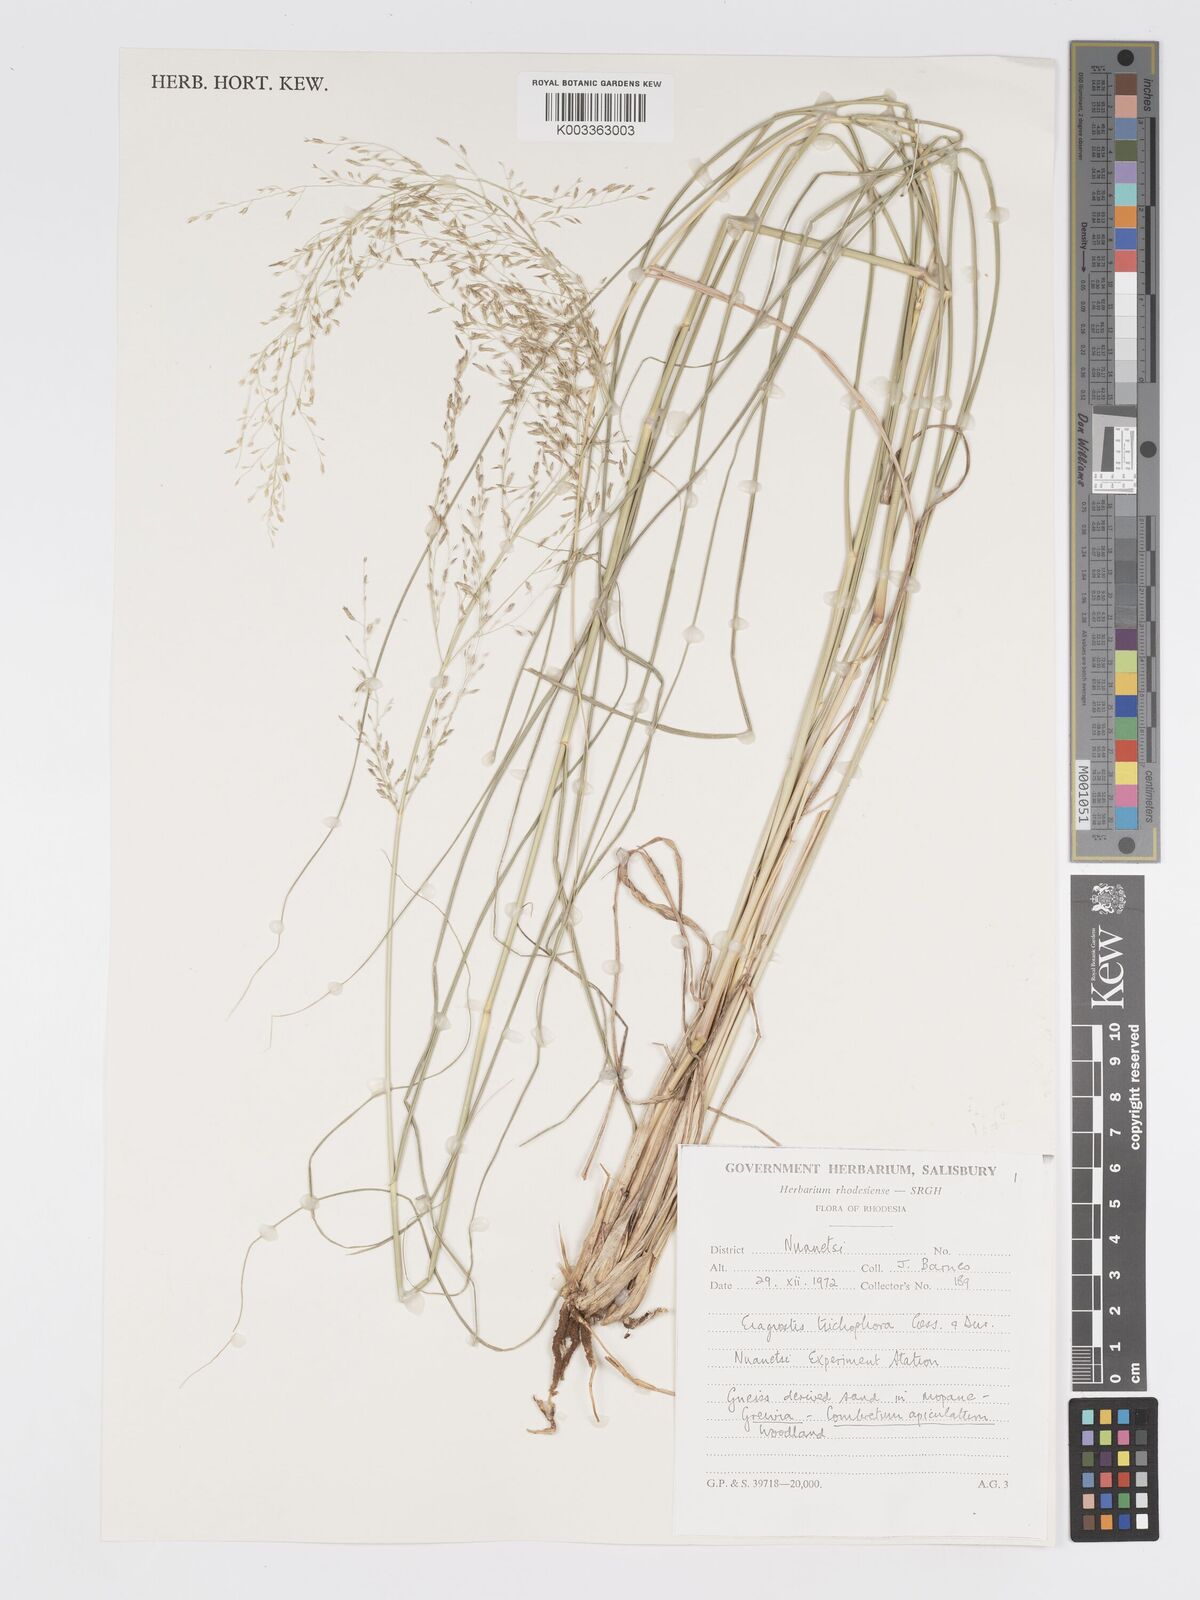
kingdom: Plantae
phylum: Tracheophyta
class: Liliopsida
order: Poales
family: Poaceae
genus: Eragrostis
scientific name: Eragrostis cylindriflora
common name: Cylinderflower lovegrass
